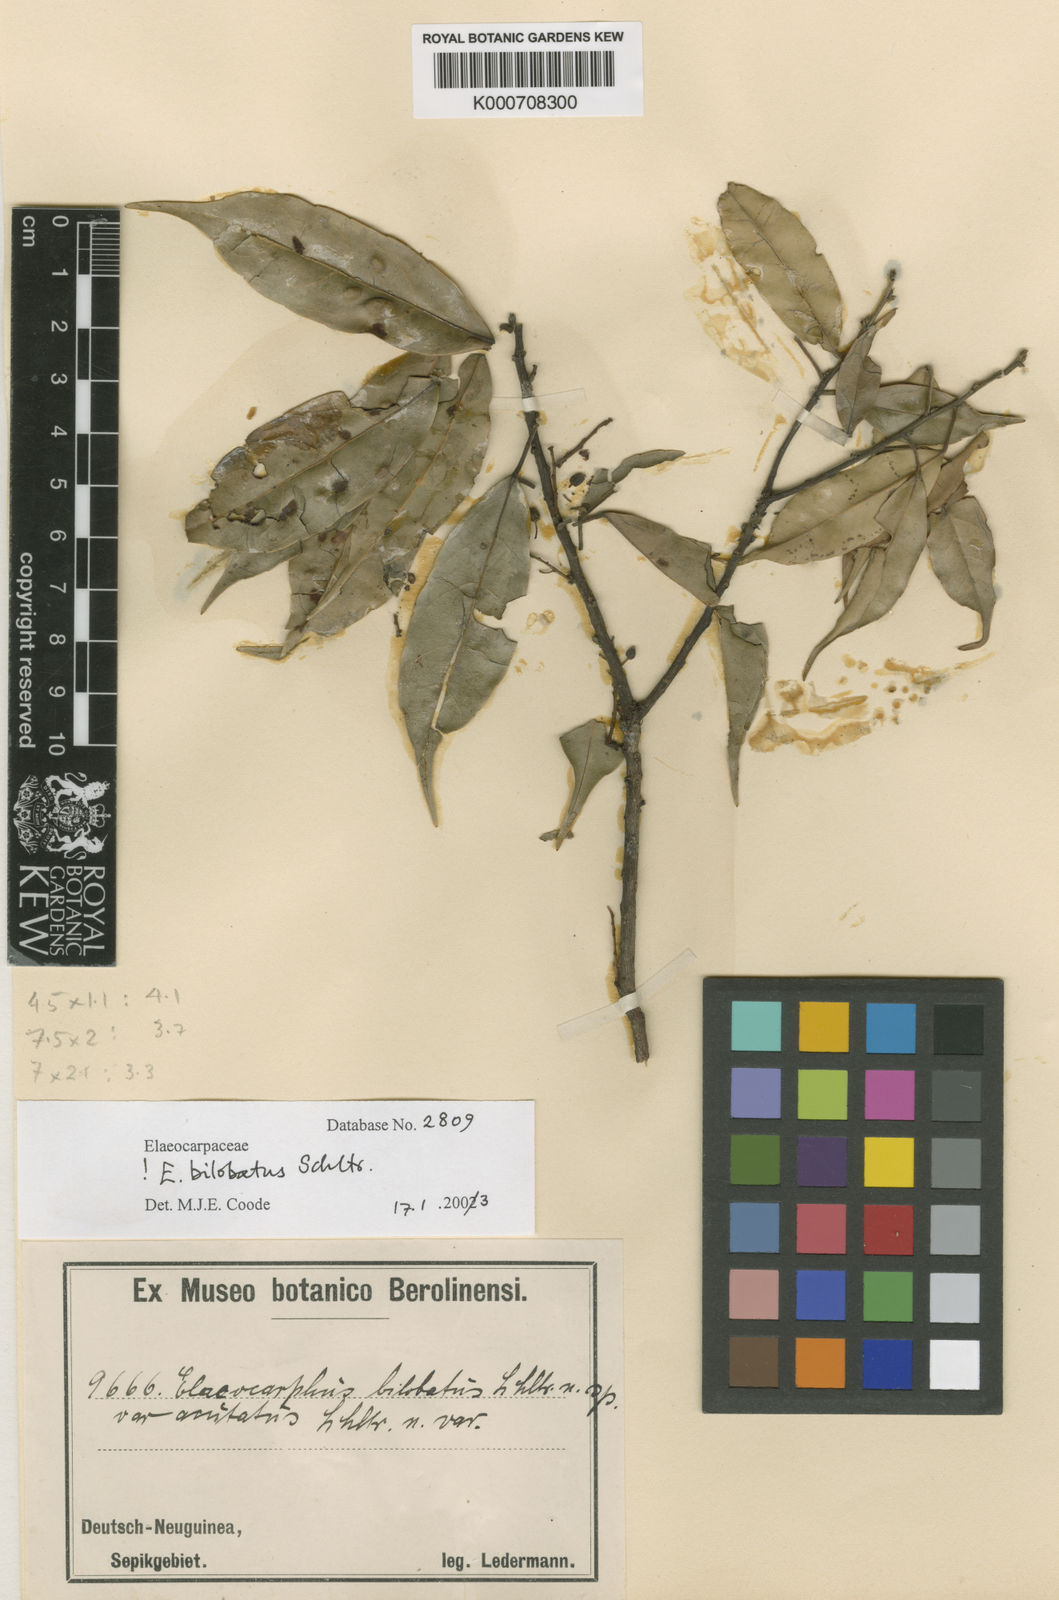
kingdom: Plantae
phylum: Tracheophyta
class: Magnoliopsida
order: Oxalidales
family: Elaeocarpaceae
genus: Elaeocarpus
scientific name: Elaeocarpus bilobatus
